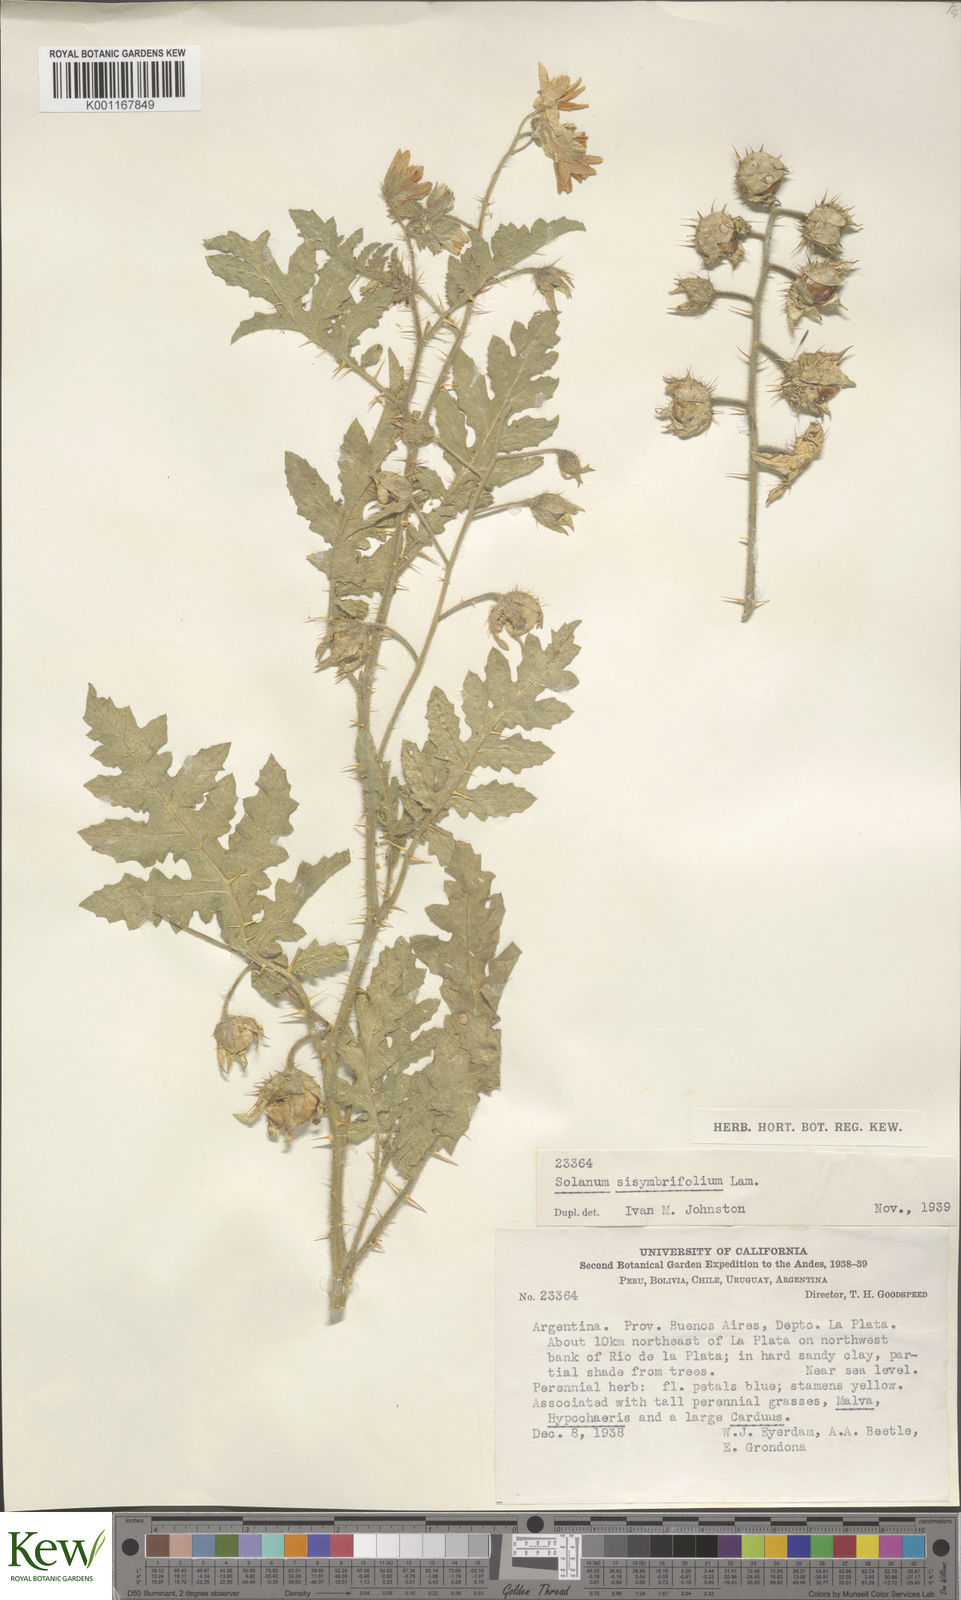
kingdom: Plantae
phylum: Tracheophyta
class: Magnoliopsida
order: Solanales
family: Solanaceae
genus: Solanum
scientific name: Solanum sisymbriifolium
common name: Red buffalo-bur
